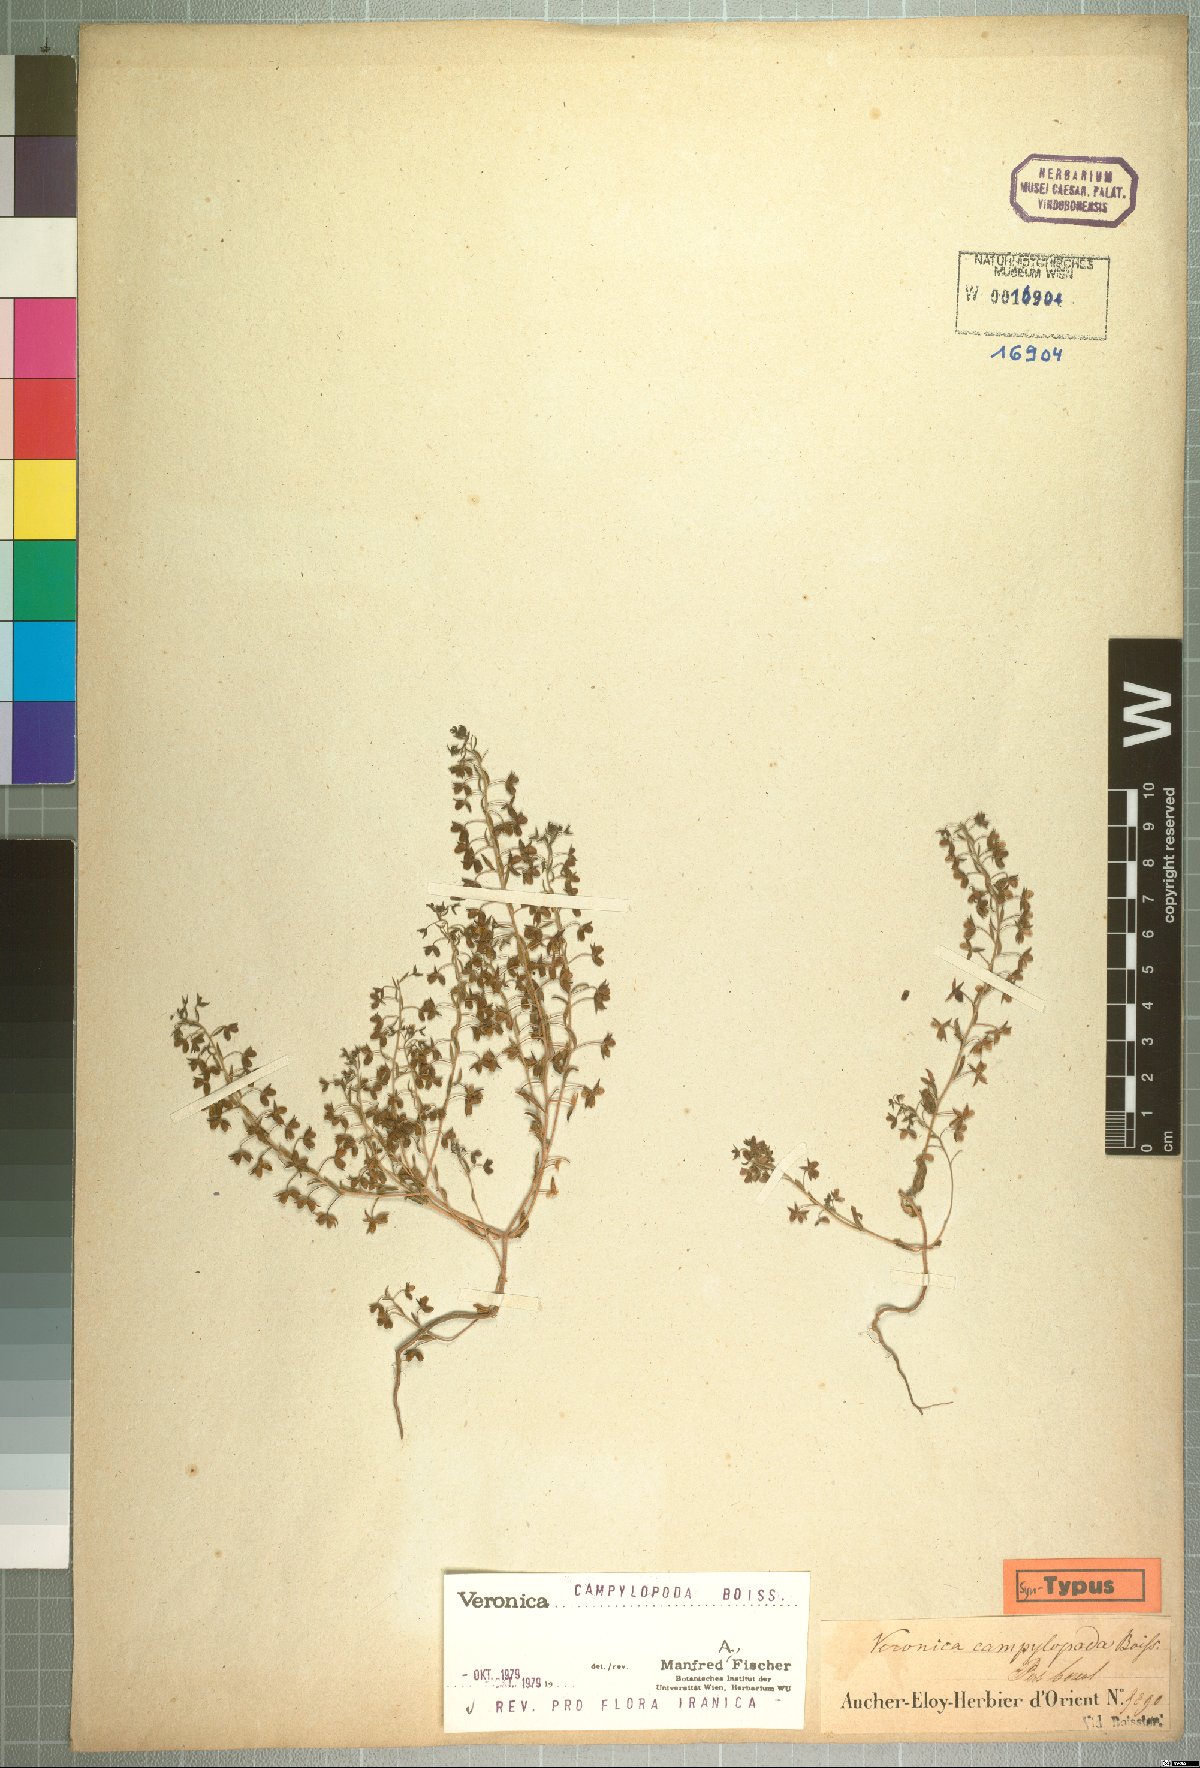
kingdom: Plantae
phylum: Tracheophyta
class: Magnoliopsida
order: Lamiales
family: Scrophulariaceae
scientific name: Scrophulariaceae
